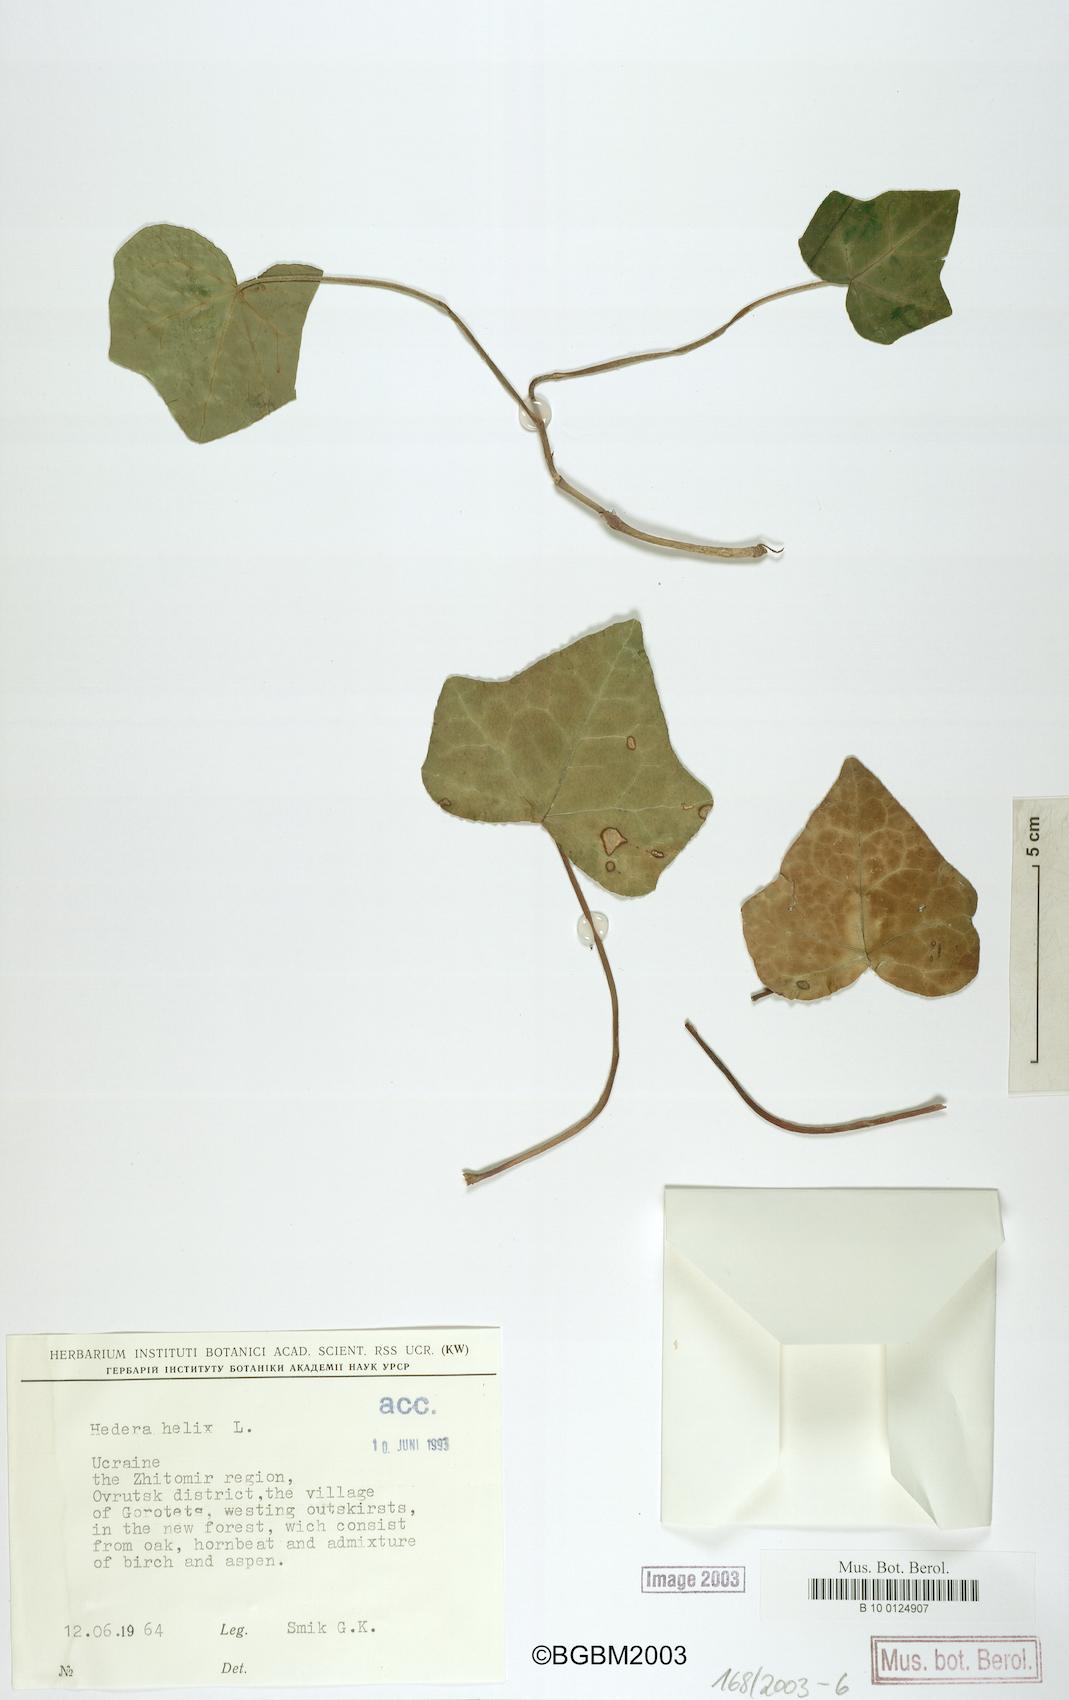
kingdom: Plantae
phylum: Tracheophyta
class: Magnoliopsida
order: Apiales
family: Araliaceae
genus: Hedera
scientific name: Hedera helix
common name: Ivy
